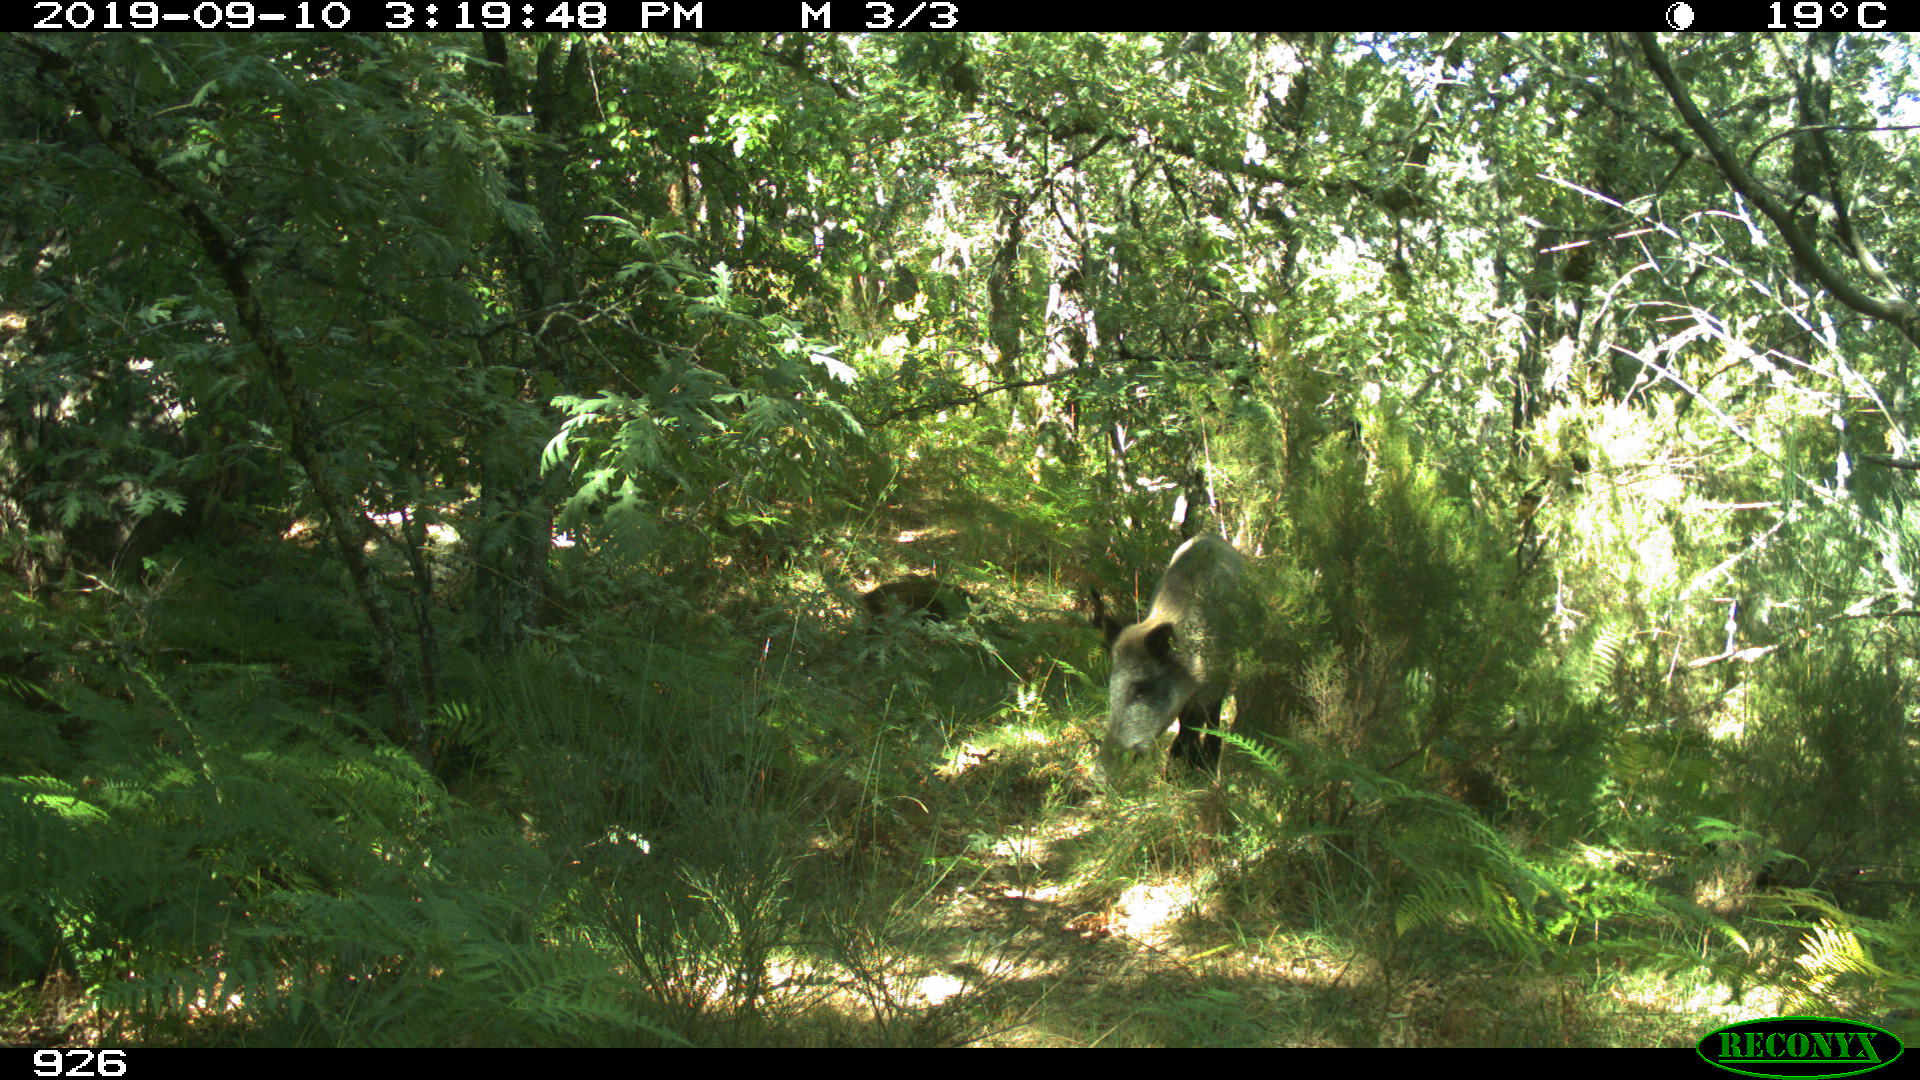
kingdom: Animalia
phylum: Chordata
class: Mammalia
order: Artiodactyla
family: Suidae
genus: Sus
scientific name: Sus scrofa
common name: Wild boar
